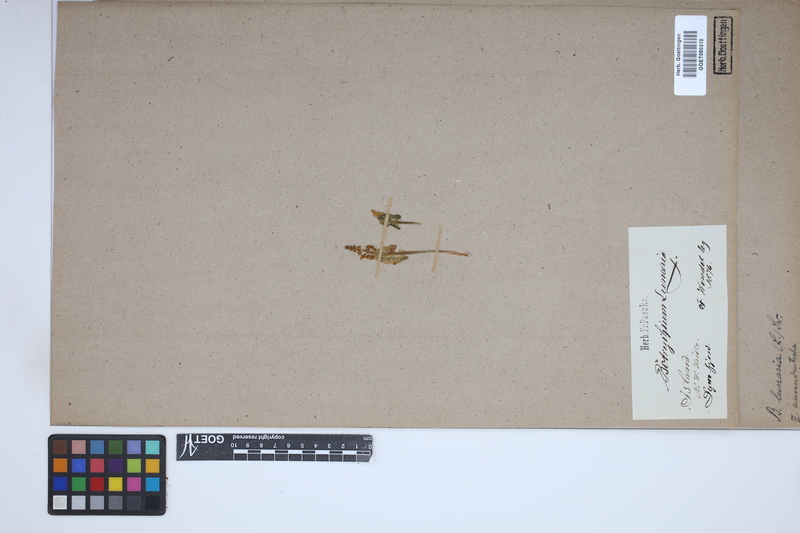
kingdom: Plantae
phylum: Tracheophyta
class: Polypodiopsida
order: Ophioglossales
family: Ophioglossaceae
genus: Botrychium
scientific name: Botrychium lunaria
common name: Moonwort
